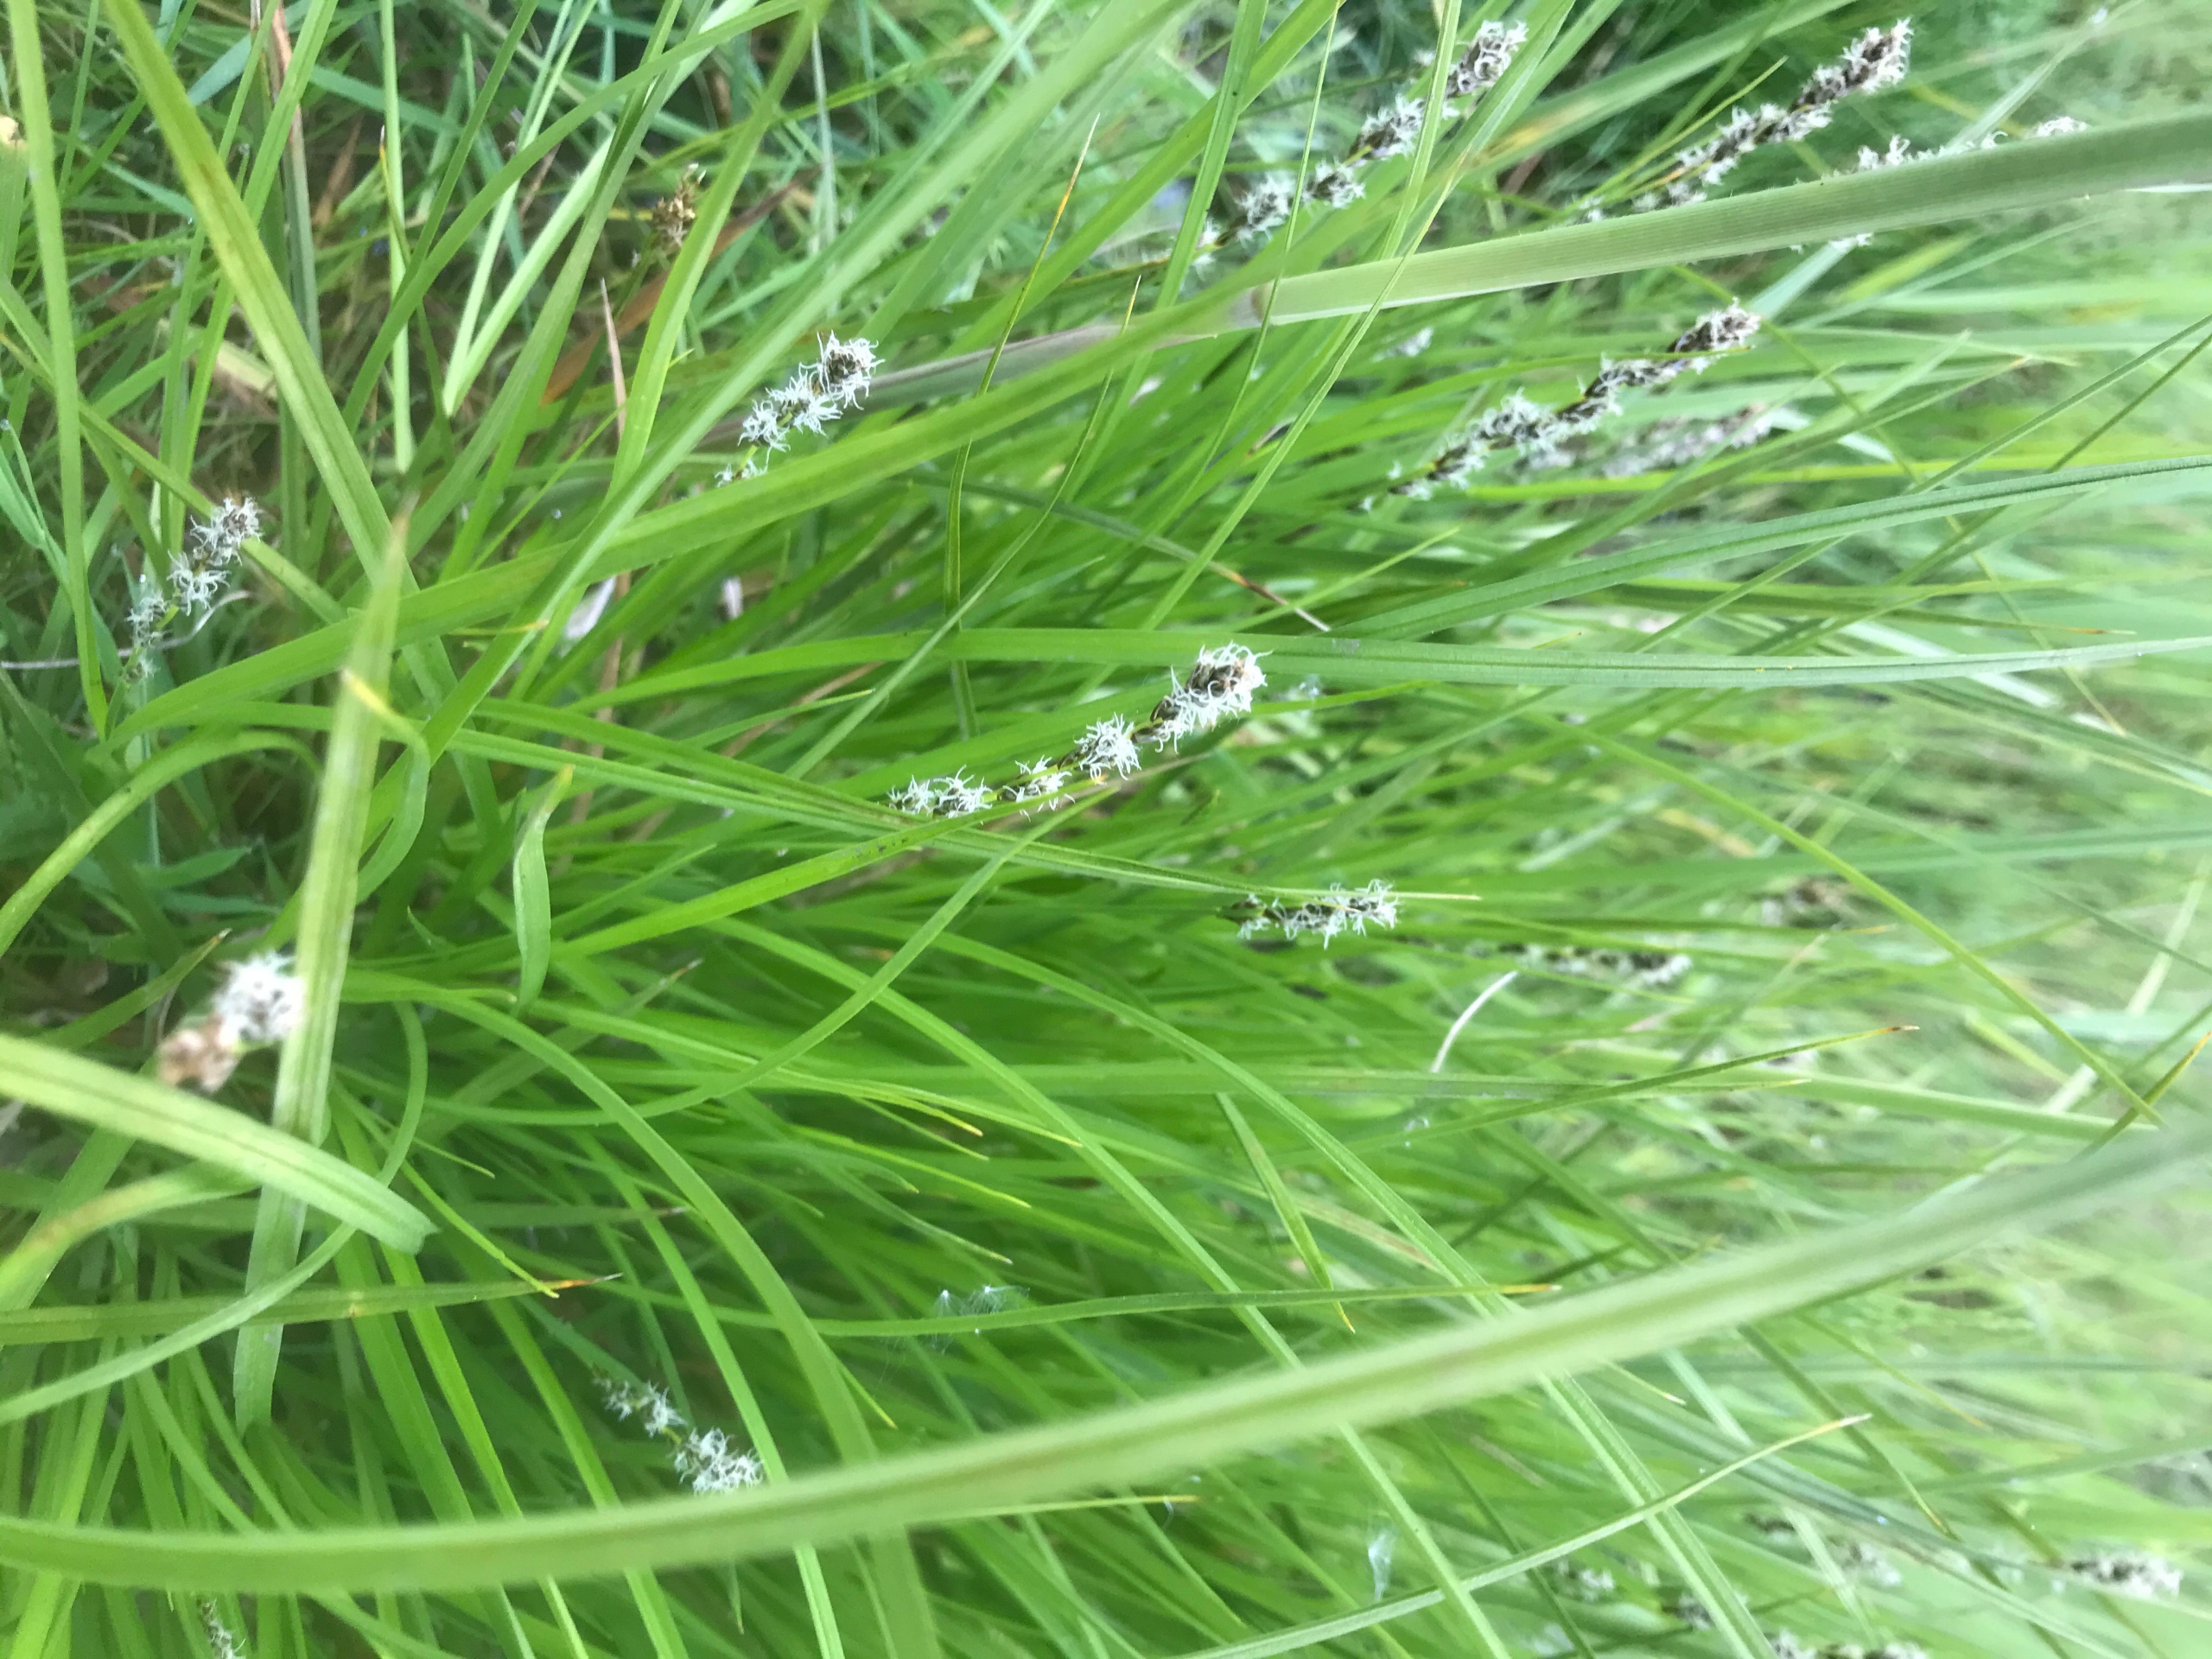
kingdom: Plantae
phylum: Tracheophyta
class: Liliopsida
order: Poales
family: Cyperaceae
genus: Carex
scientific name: Carex paniculata
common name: Top-star
